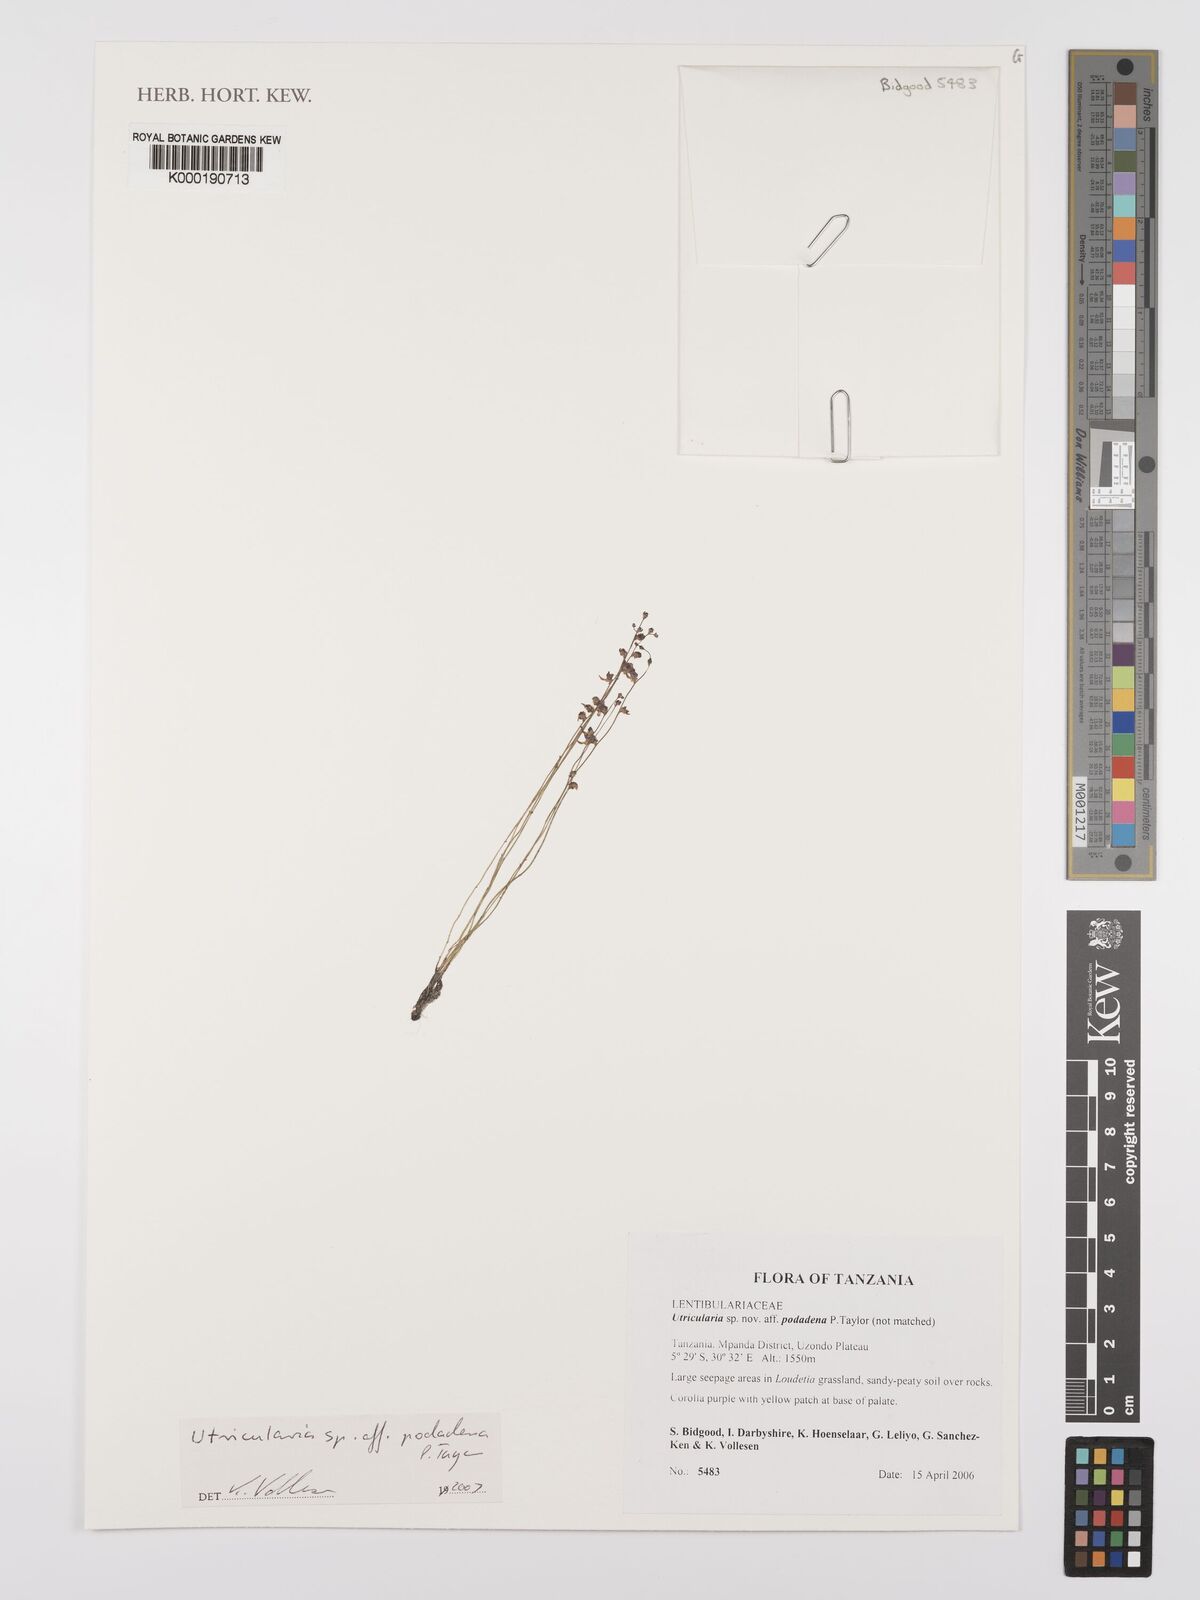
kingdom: Plantae
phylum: Tracheophyta
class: Magnoliopsida
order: Lamiales
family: Lentibulariaceae
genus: Utricularia
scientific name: Utricularia
